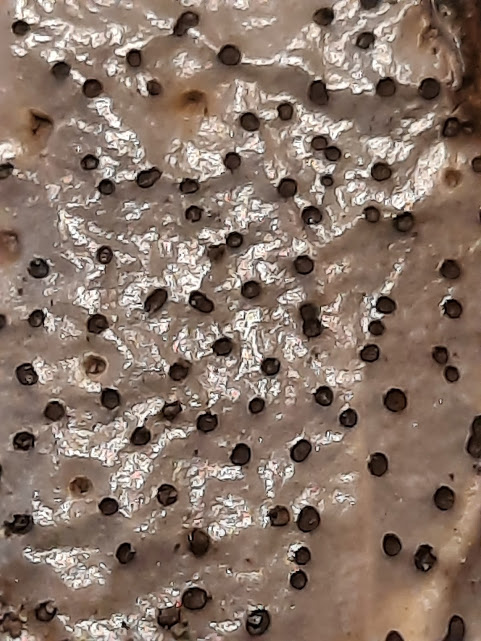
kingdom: Fungi
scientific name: Fungi
